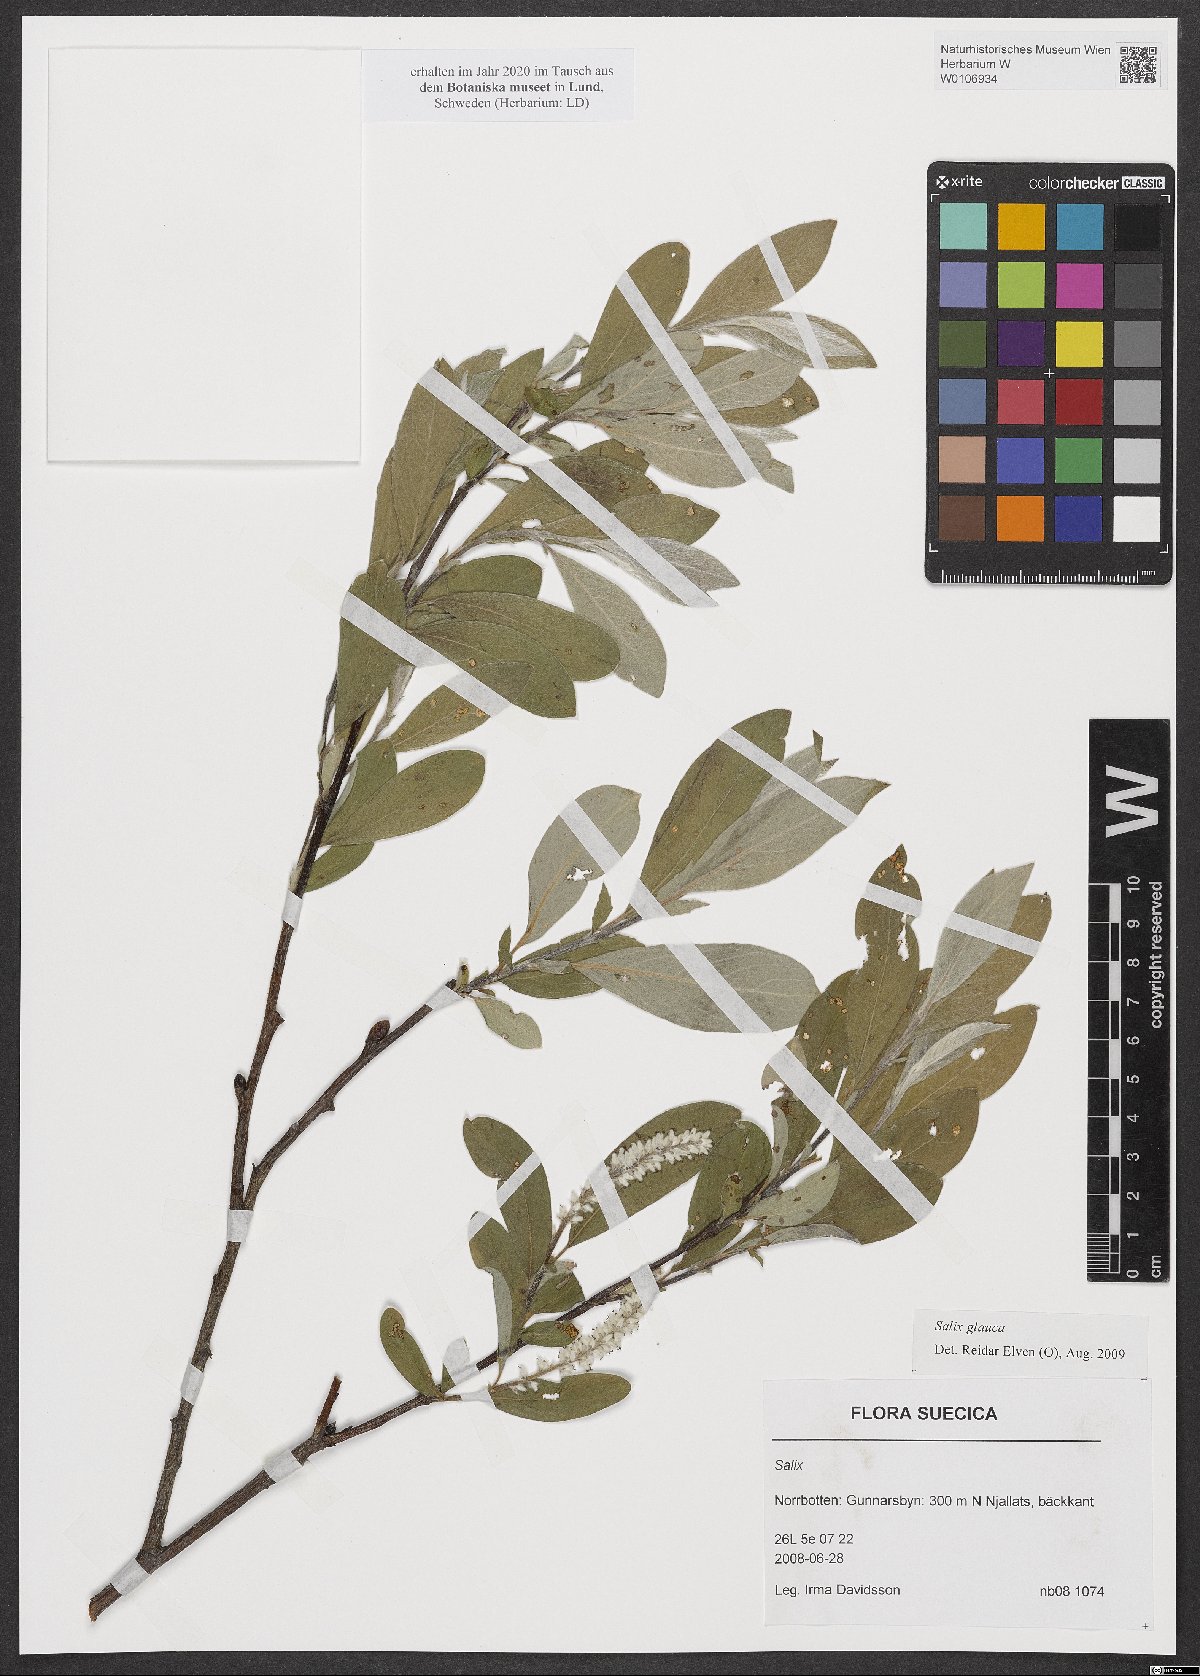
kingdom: Plantae
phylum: Tracheophyta
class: Magnoliopsida
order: Malpighiales
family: Salicaceae
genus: Salix
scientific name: Salix glauca
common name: Glaucous willow
